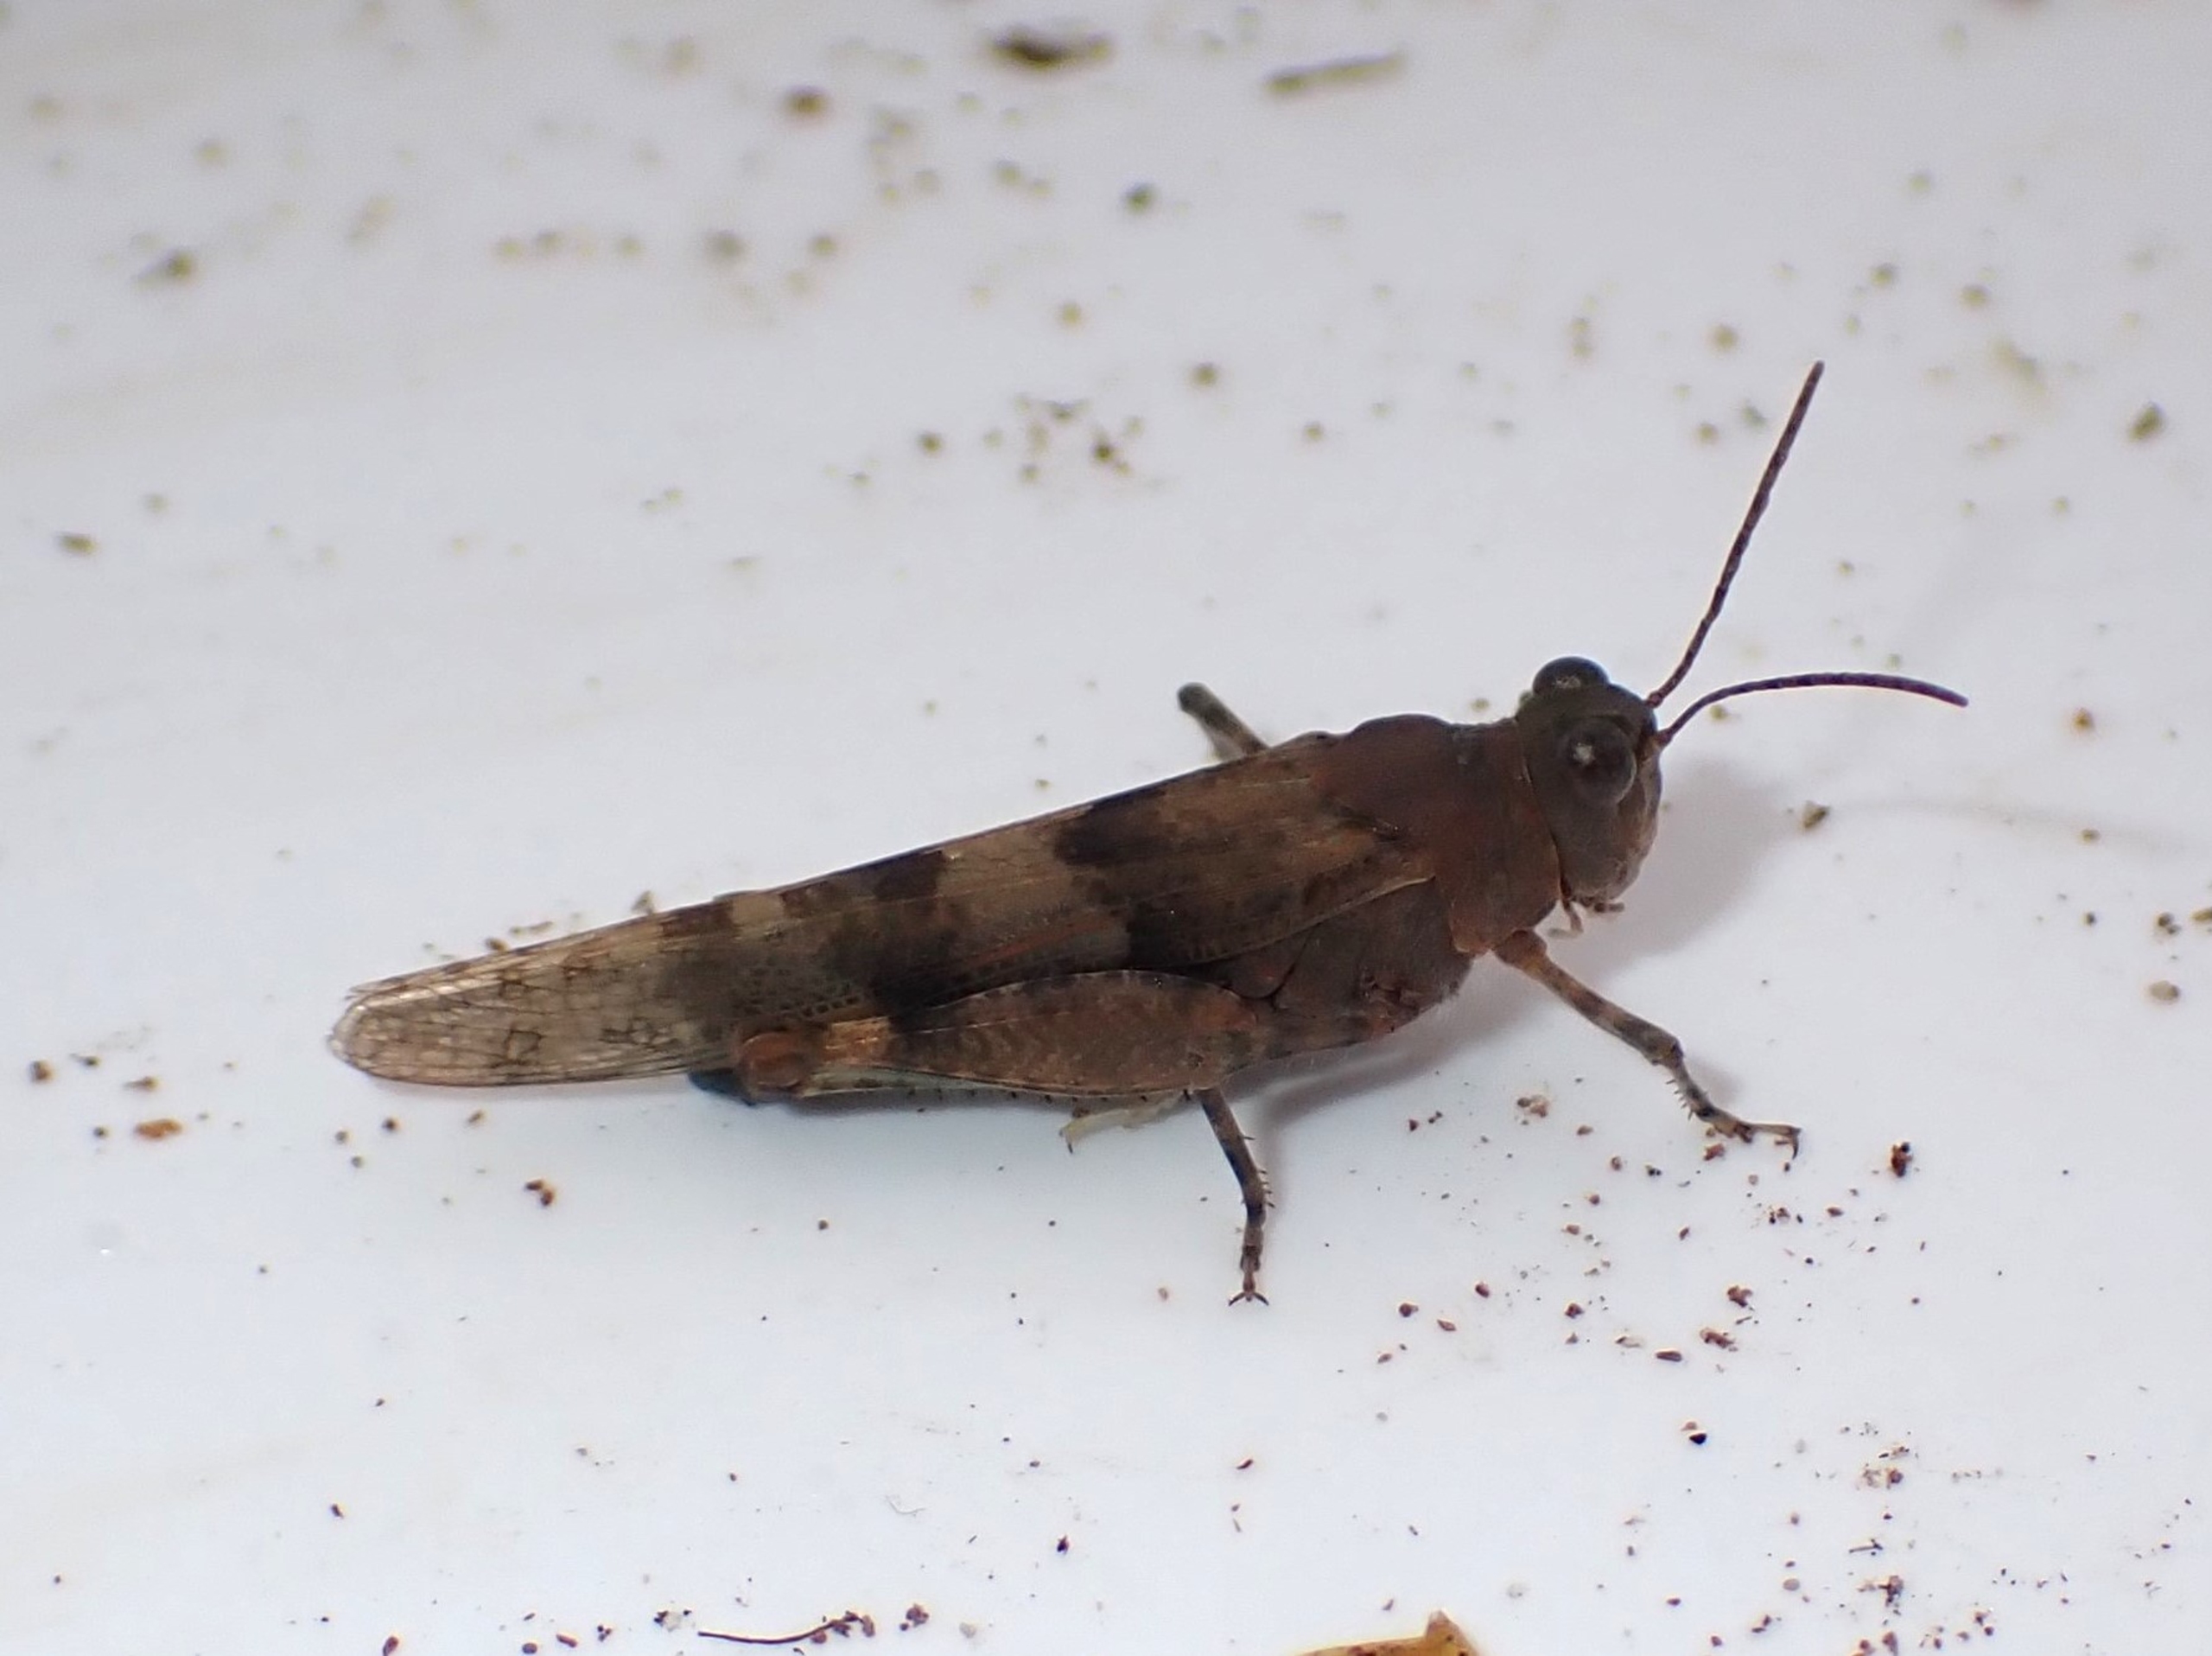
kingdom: Animalia
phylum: Arthropoda
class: Insecta
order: Orthoptera
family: Acrididae
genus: Sphingonotus
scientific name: Sphingonotus caerulans
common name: Blåvinget steppegræshoppe
